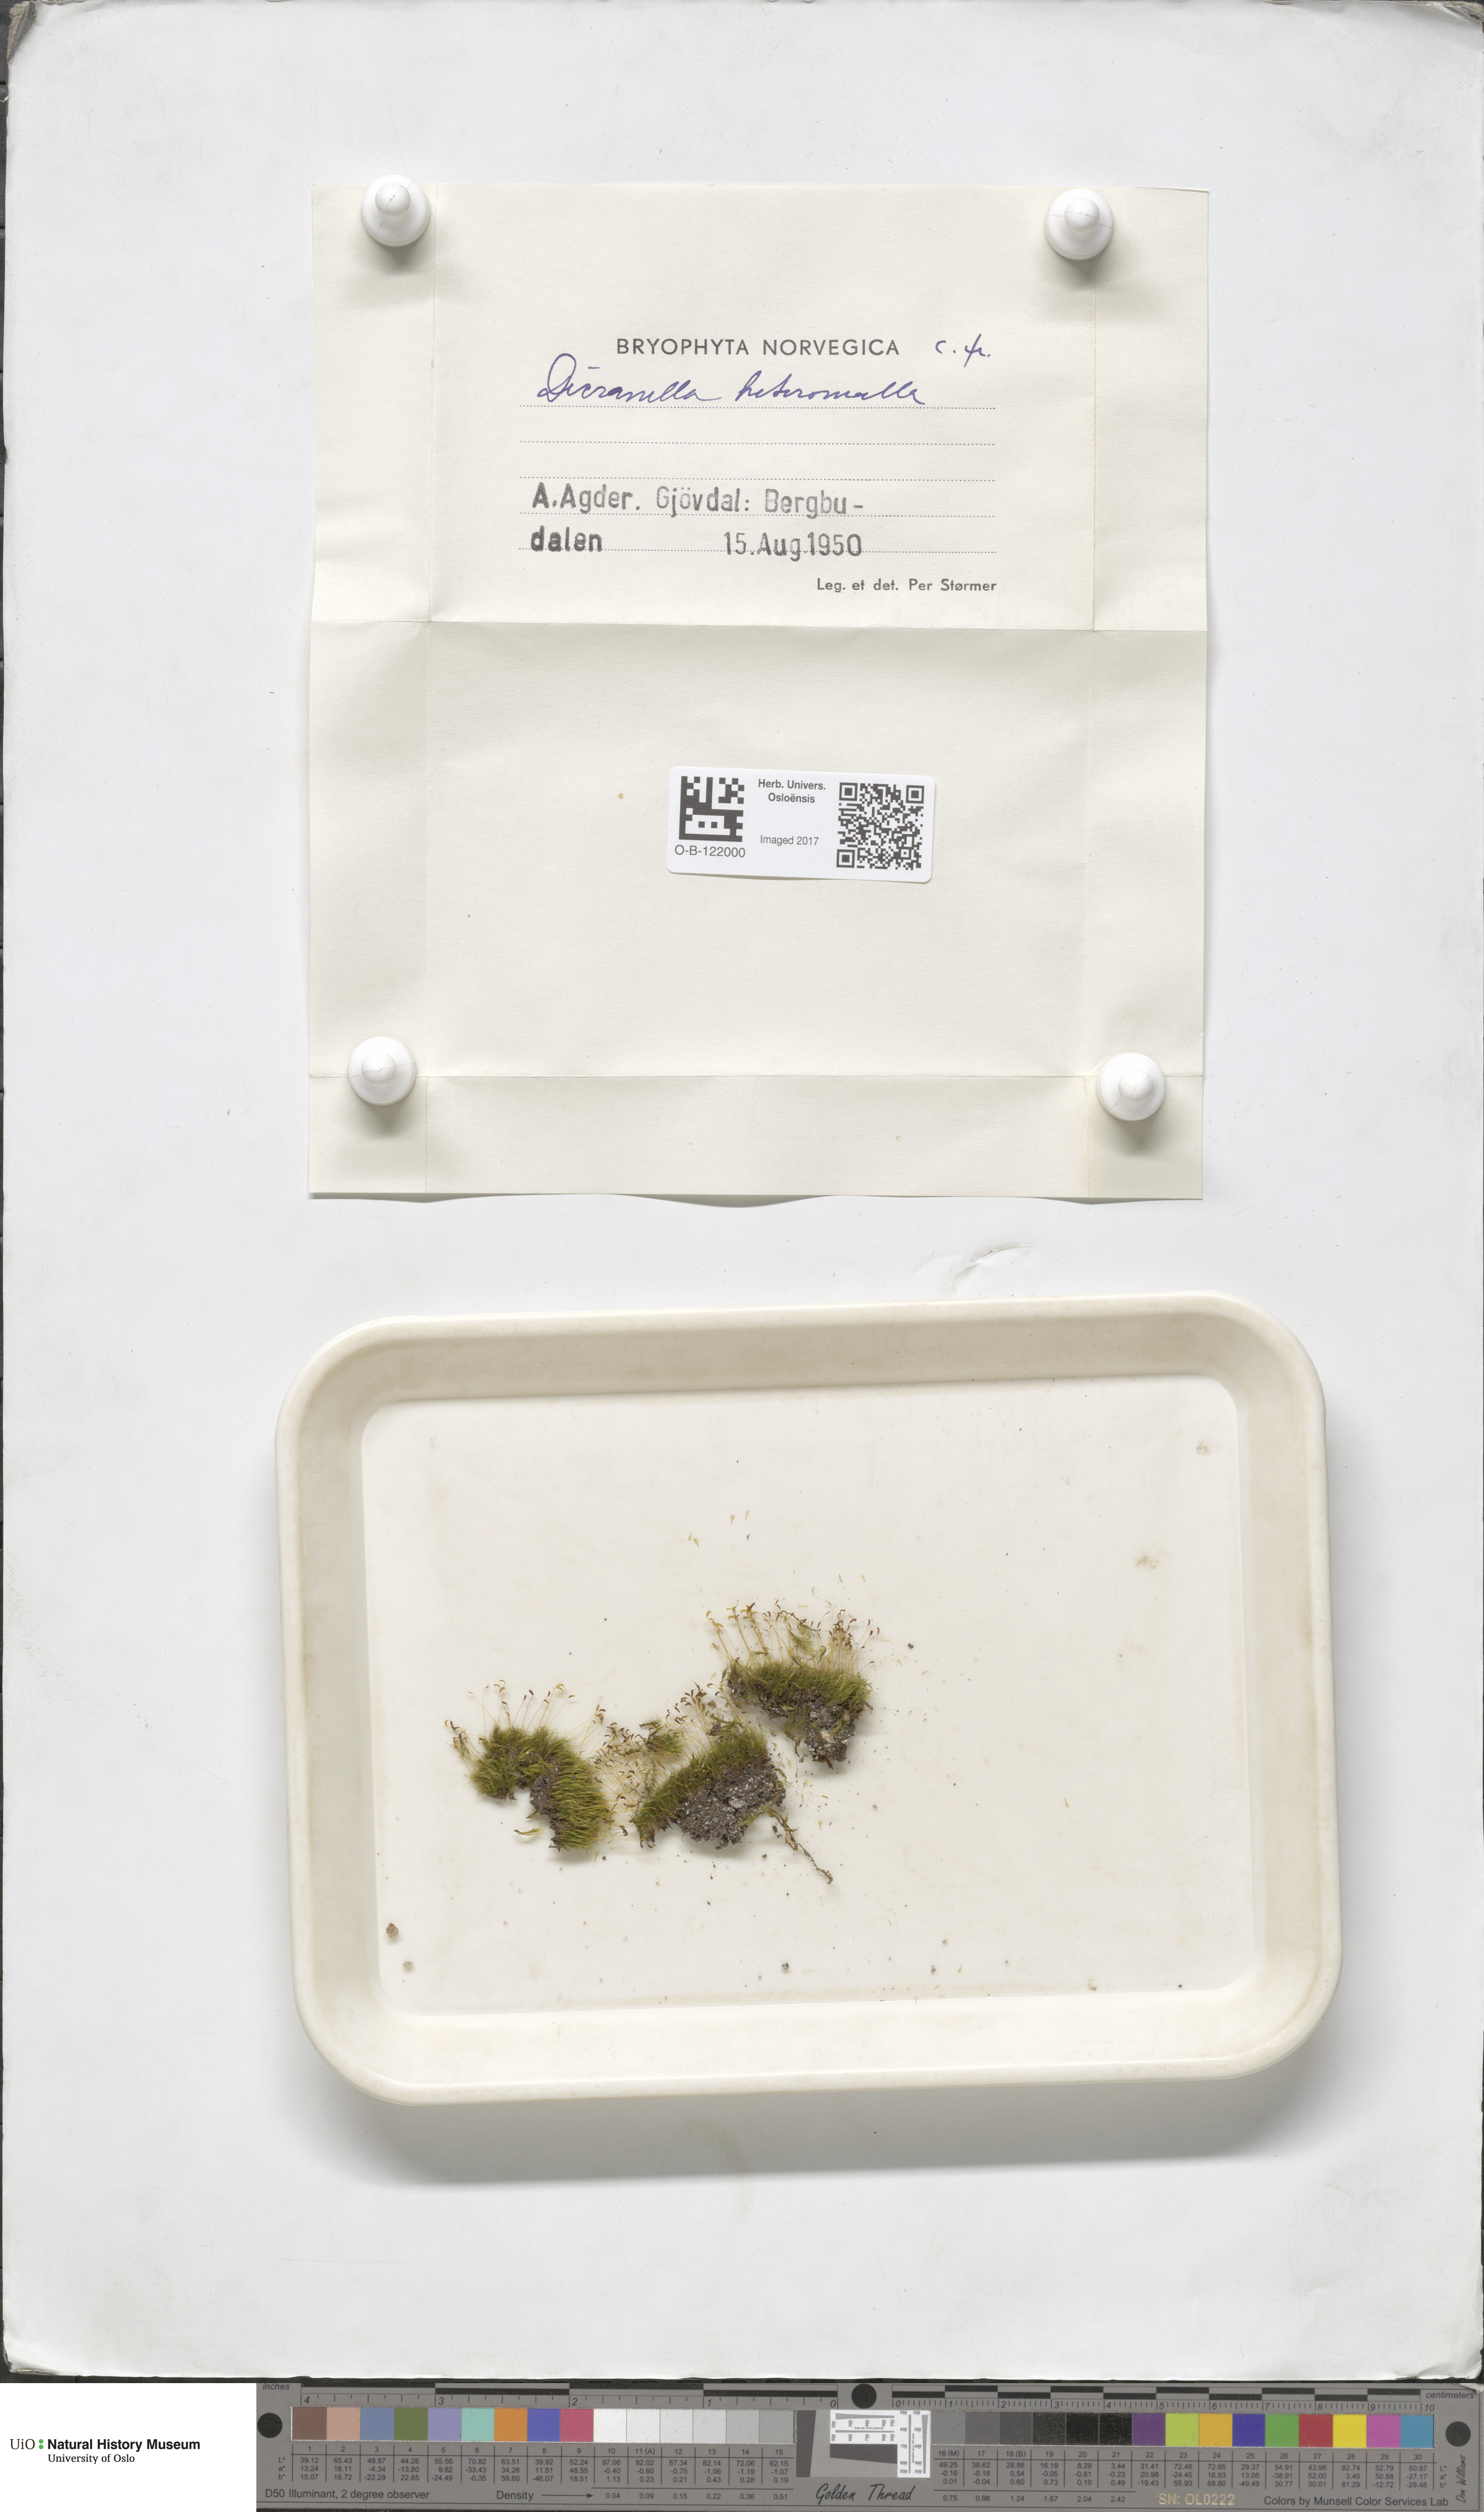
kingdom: Plantae
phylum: Bryophyta
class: Bryopsida
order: Dicranales
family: Dicranellaceae
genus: Dicranella
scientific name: Dicranella heteromalla
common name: Silky forklet moss
